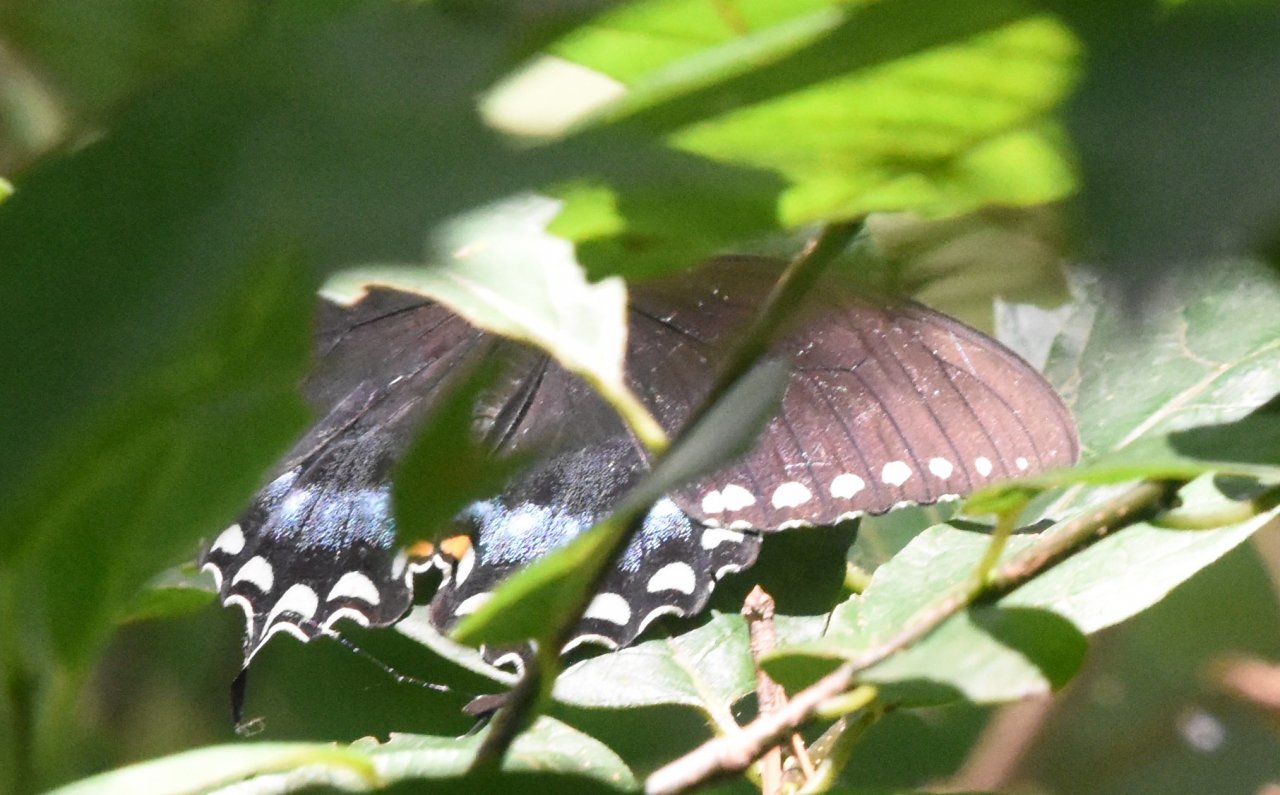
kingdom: Animalia
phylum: Arthropoda
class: Insecta
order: Lepidoptera
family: Papilionidae
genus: Pterourus
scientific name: Pterourus troilus
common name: Spicebush Swallowtail
